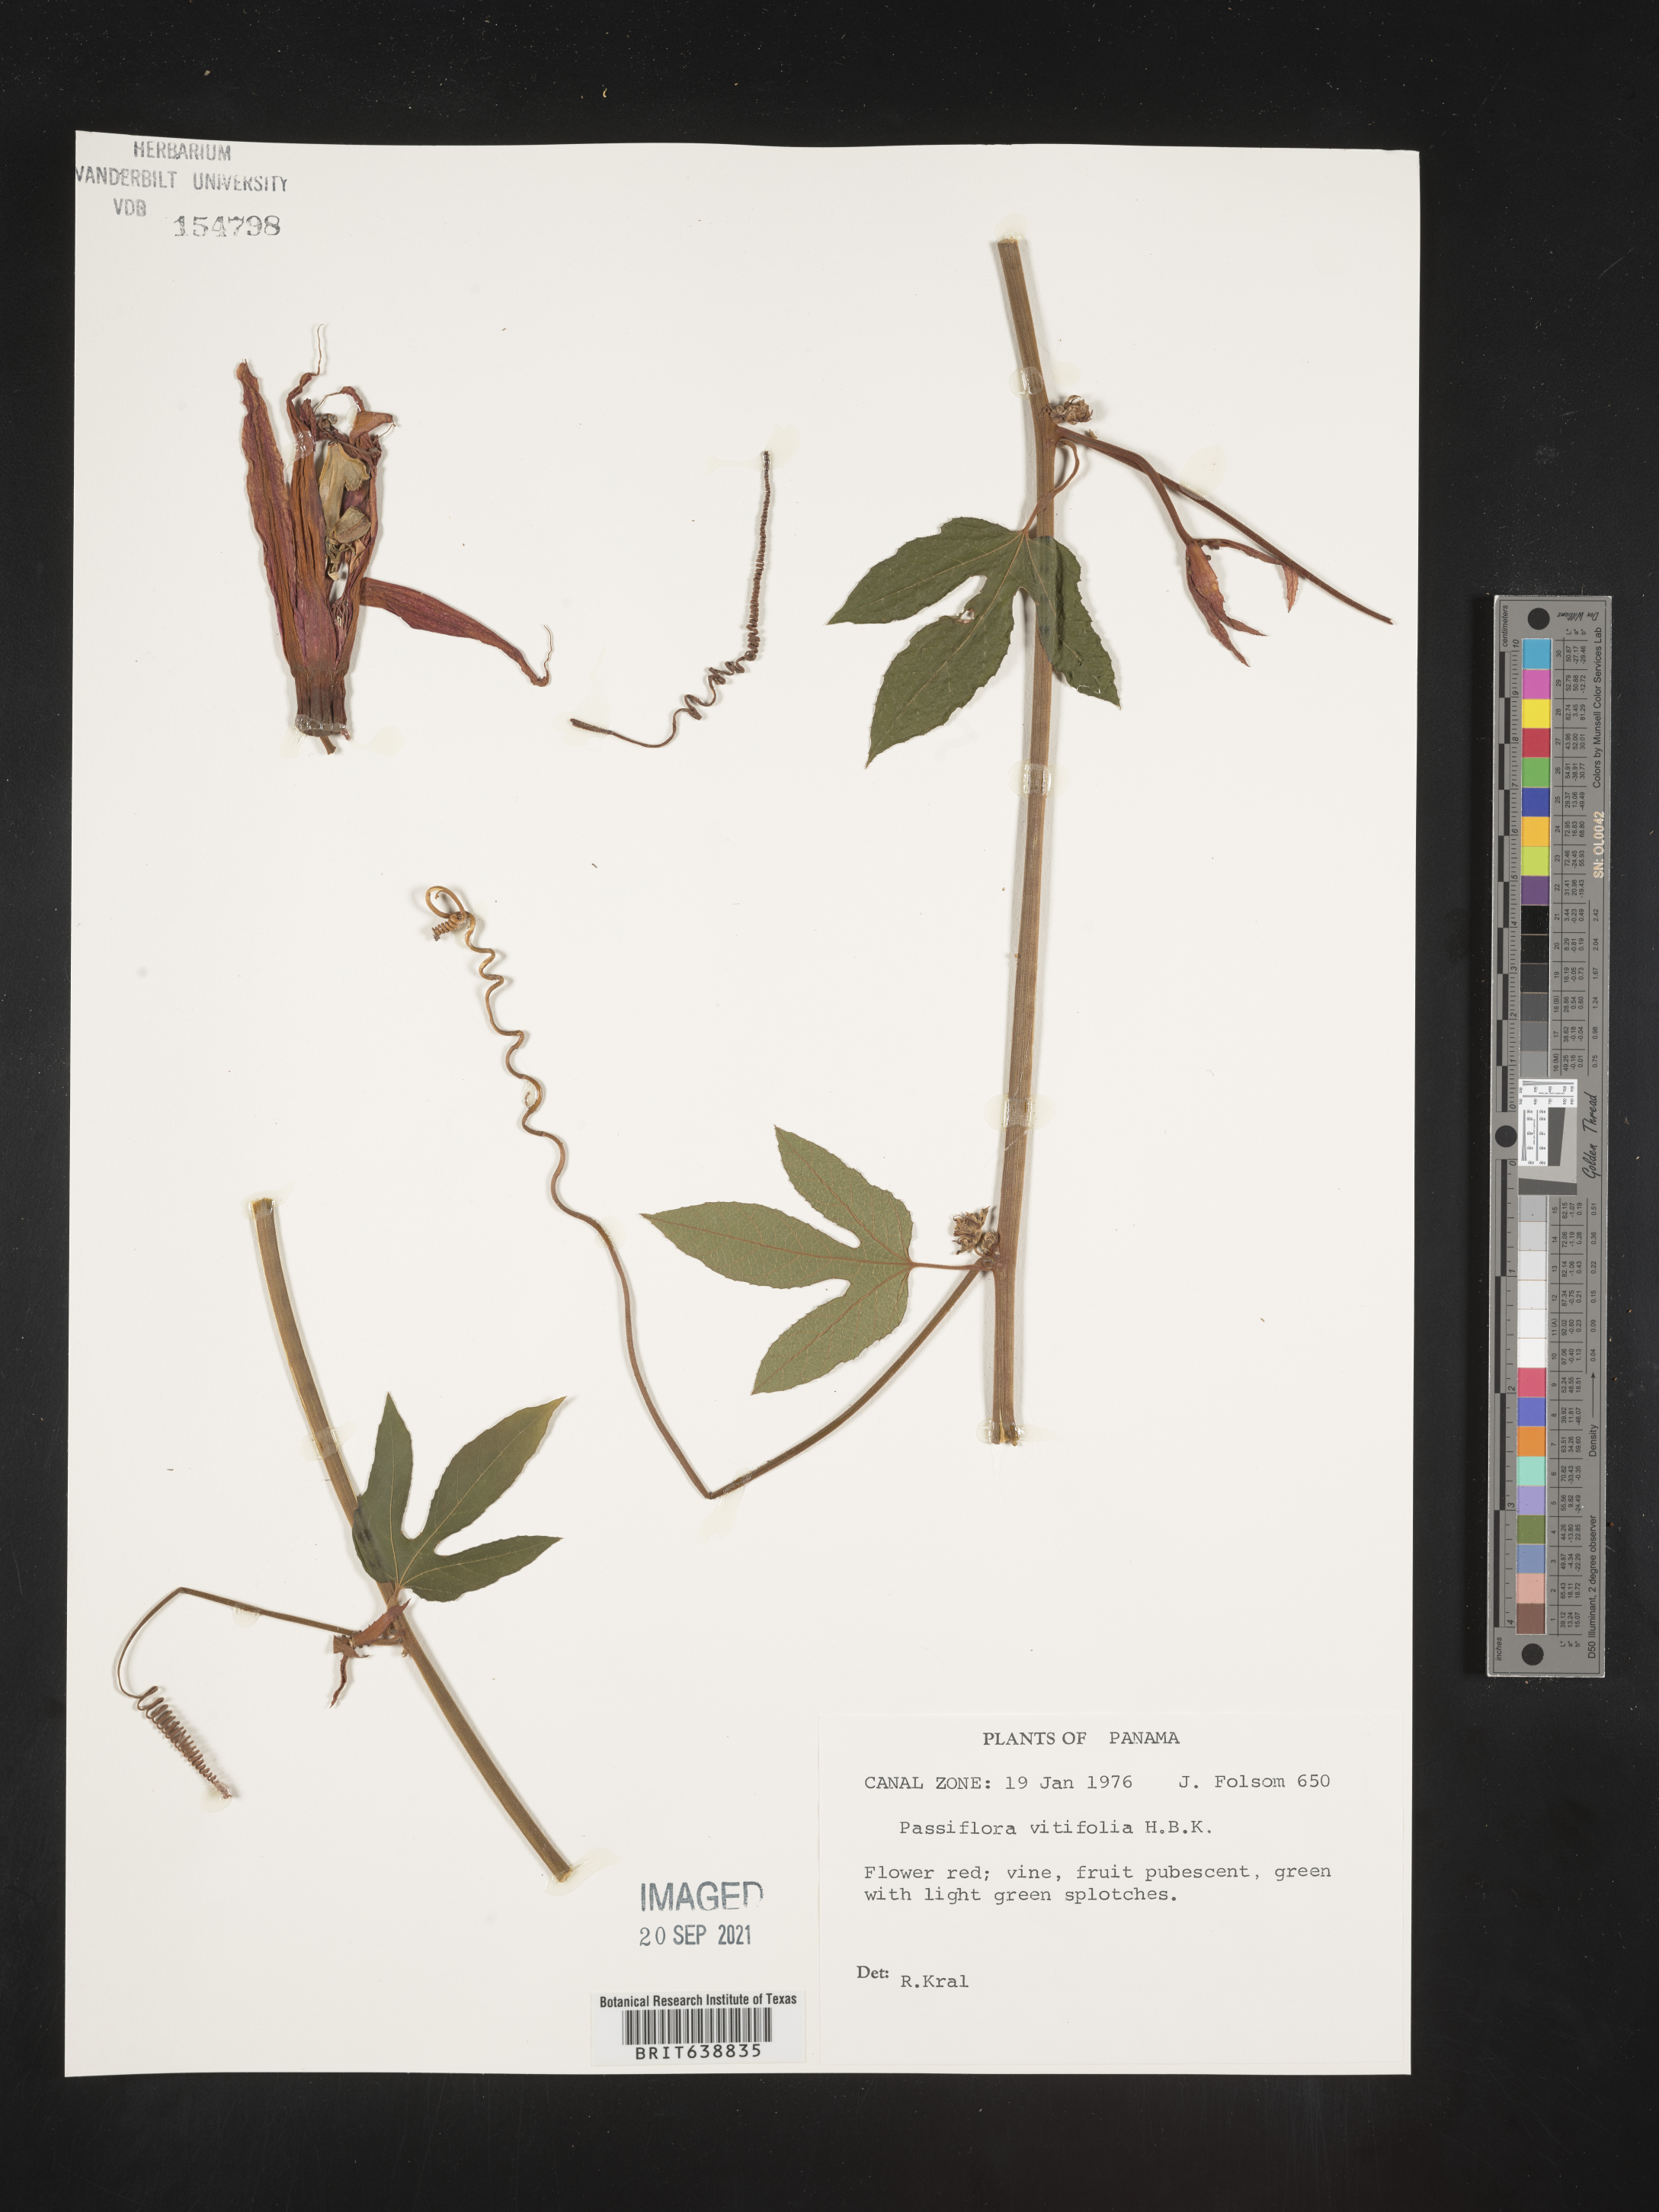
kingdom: Plantae
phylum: Tracheophyta
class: Magnoliopsida
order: Malpighiales
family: Passifloraceae
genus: Passiflora
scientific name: Passiflora
